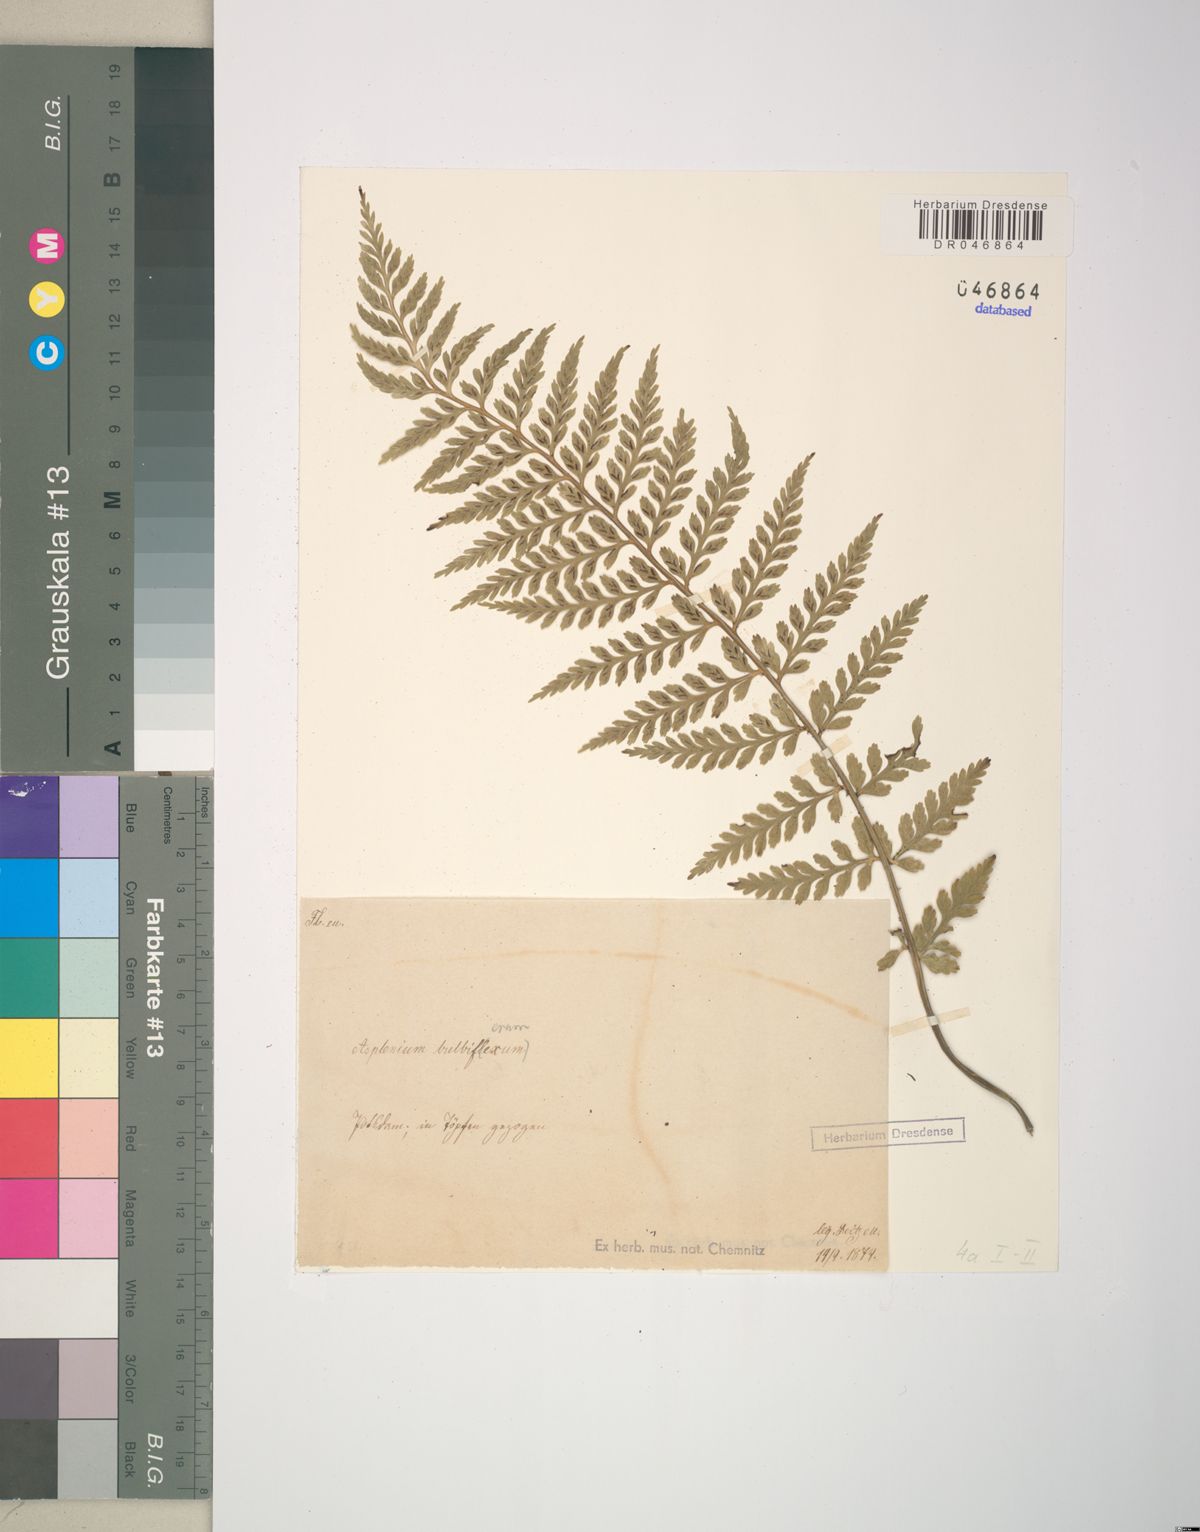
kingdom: Plantae
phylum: Tracheophyta
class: Polypodiopsida
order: Polypodiales
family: Aspleniaceae
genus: Asplenium
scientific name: Asplenium bulbiferum
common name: Mother fern
